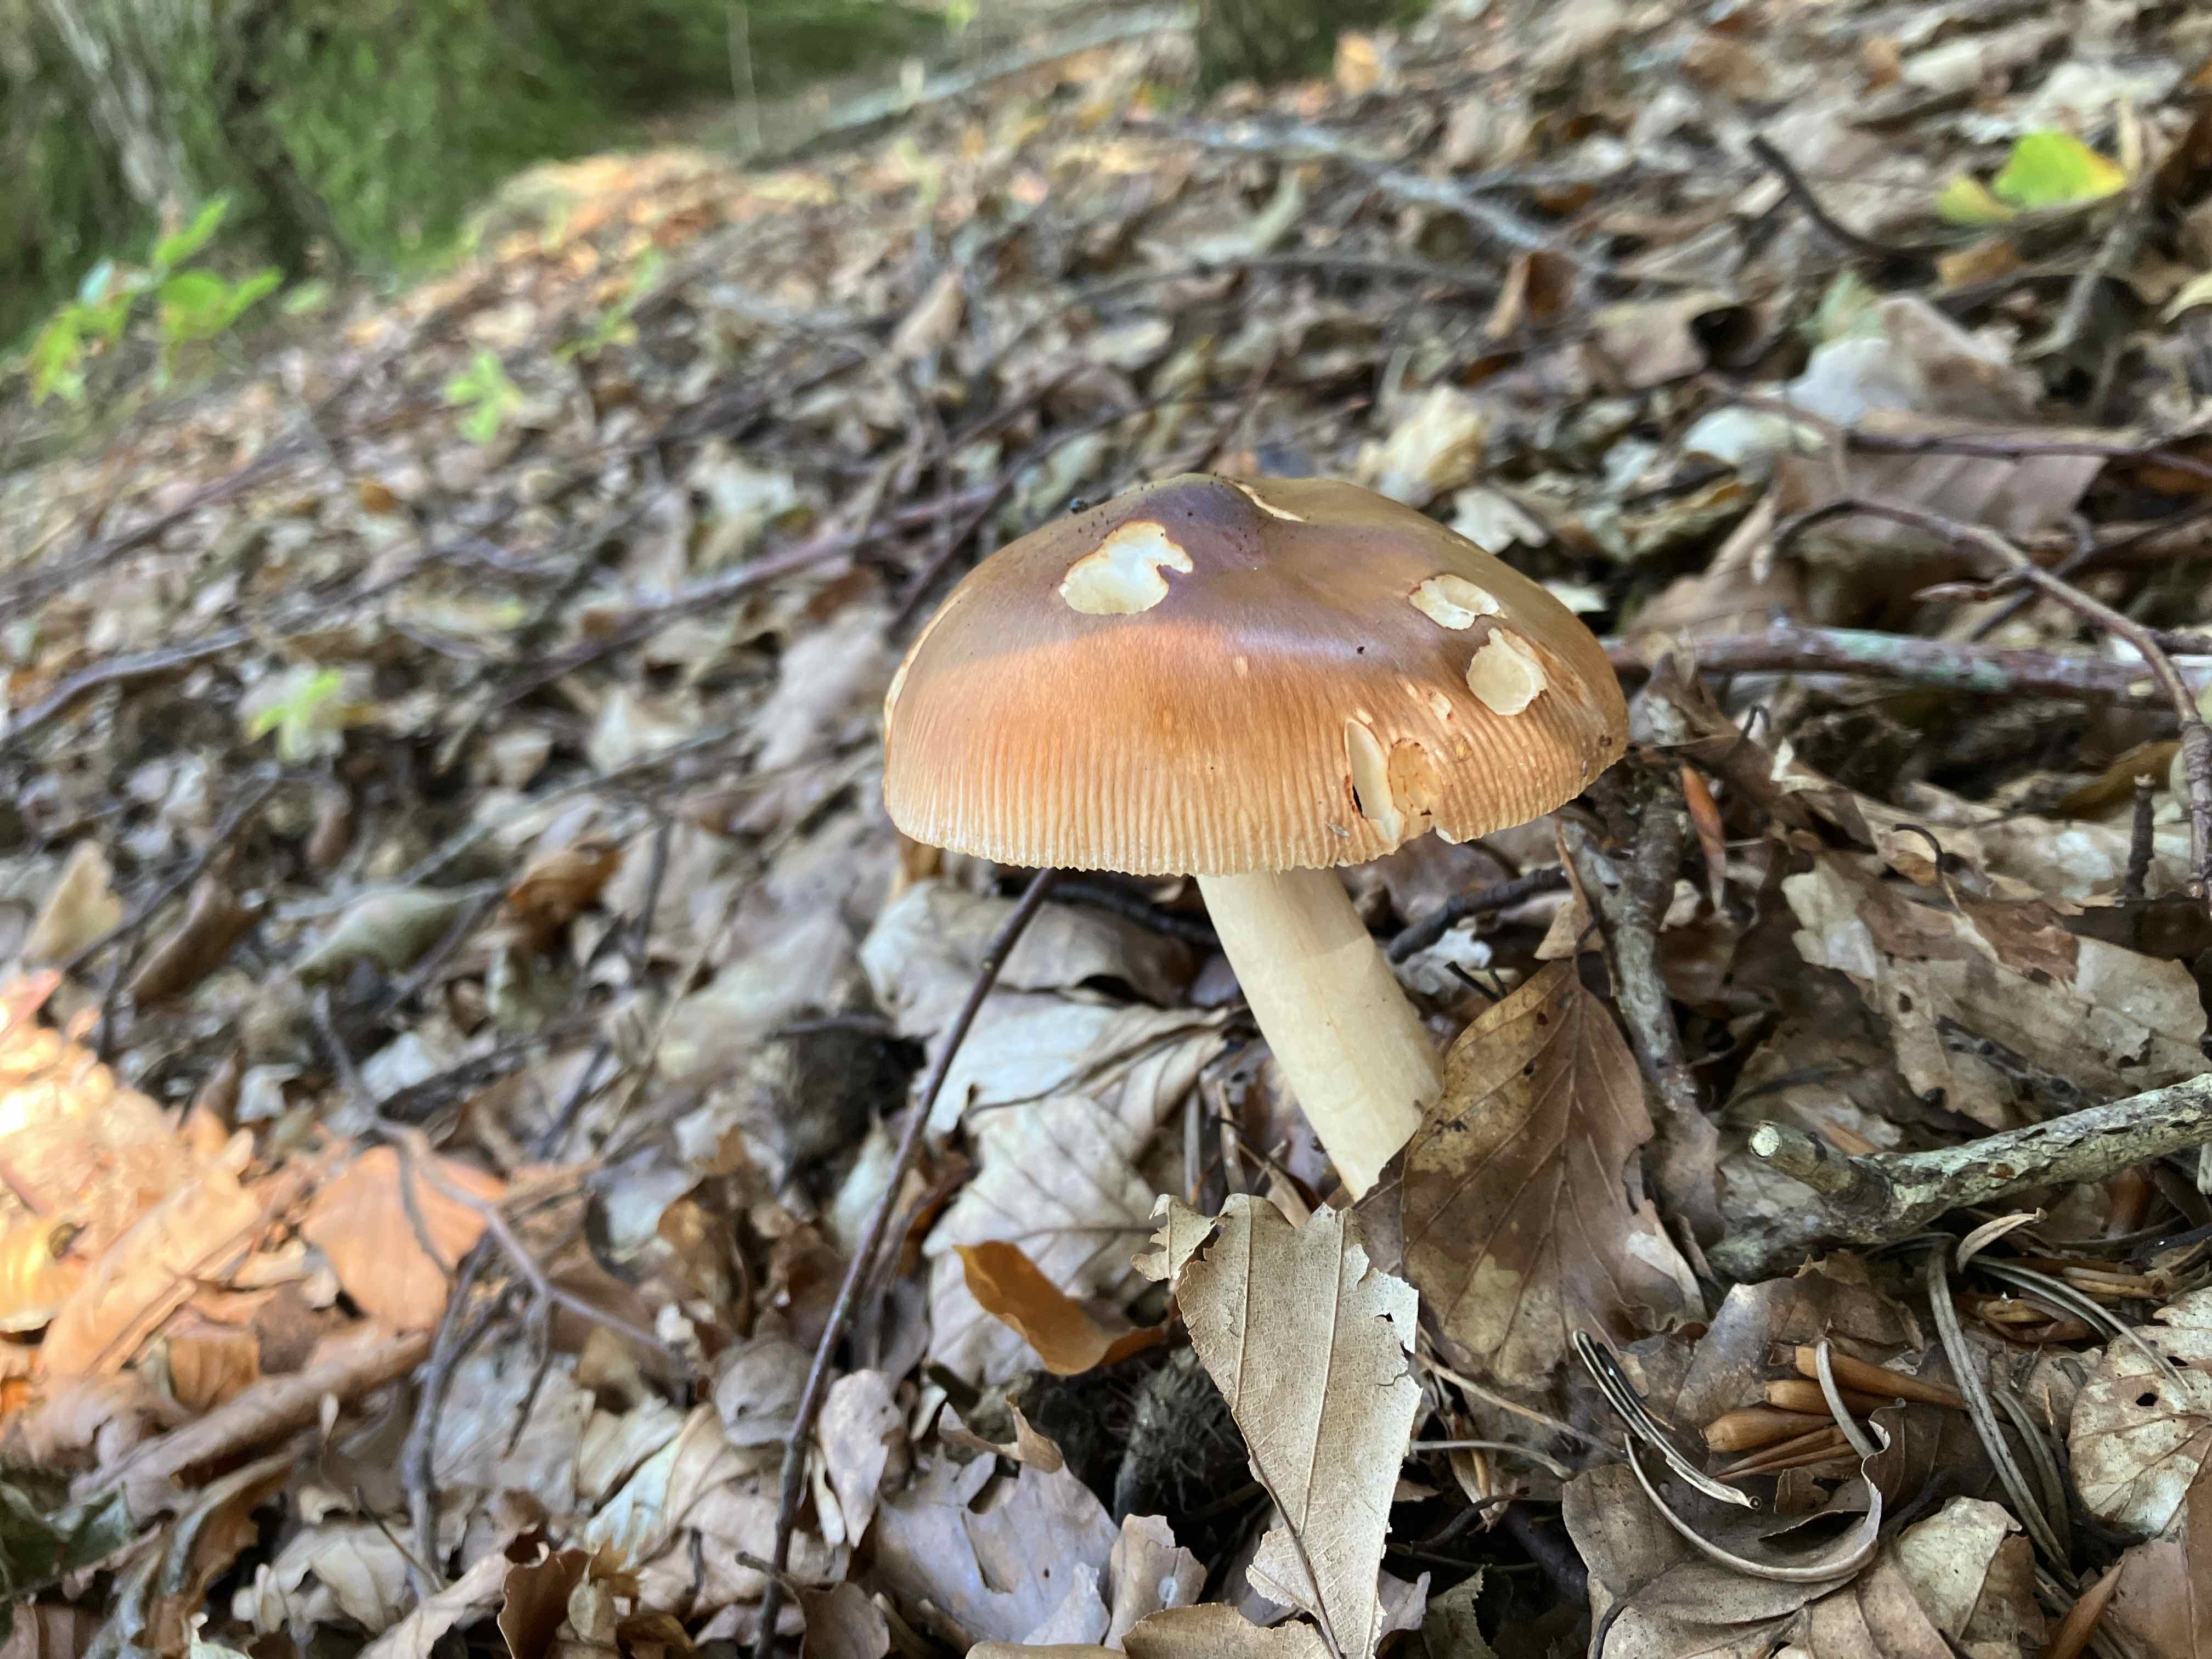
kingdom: Fungi
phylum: Basidiomycota
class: Agaricomycetes
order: Agaricales
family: Amanitaceae
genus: Amanita
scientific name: Amanita fulva
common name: brun kam-fluesvamp
